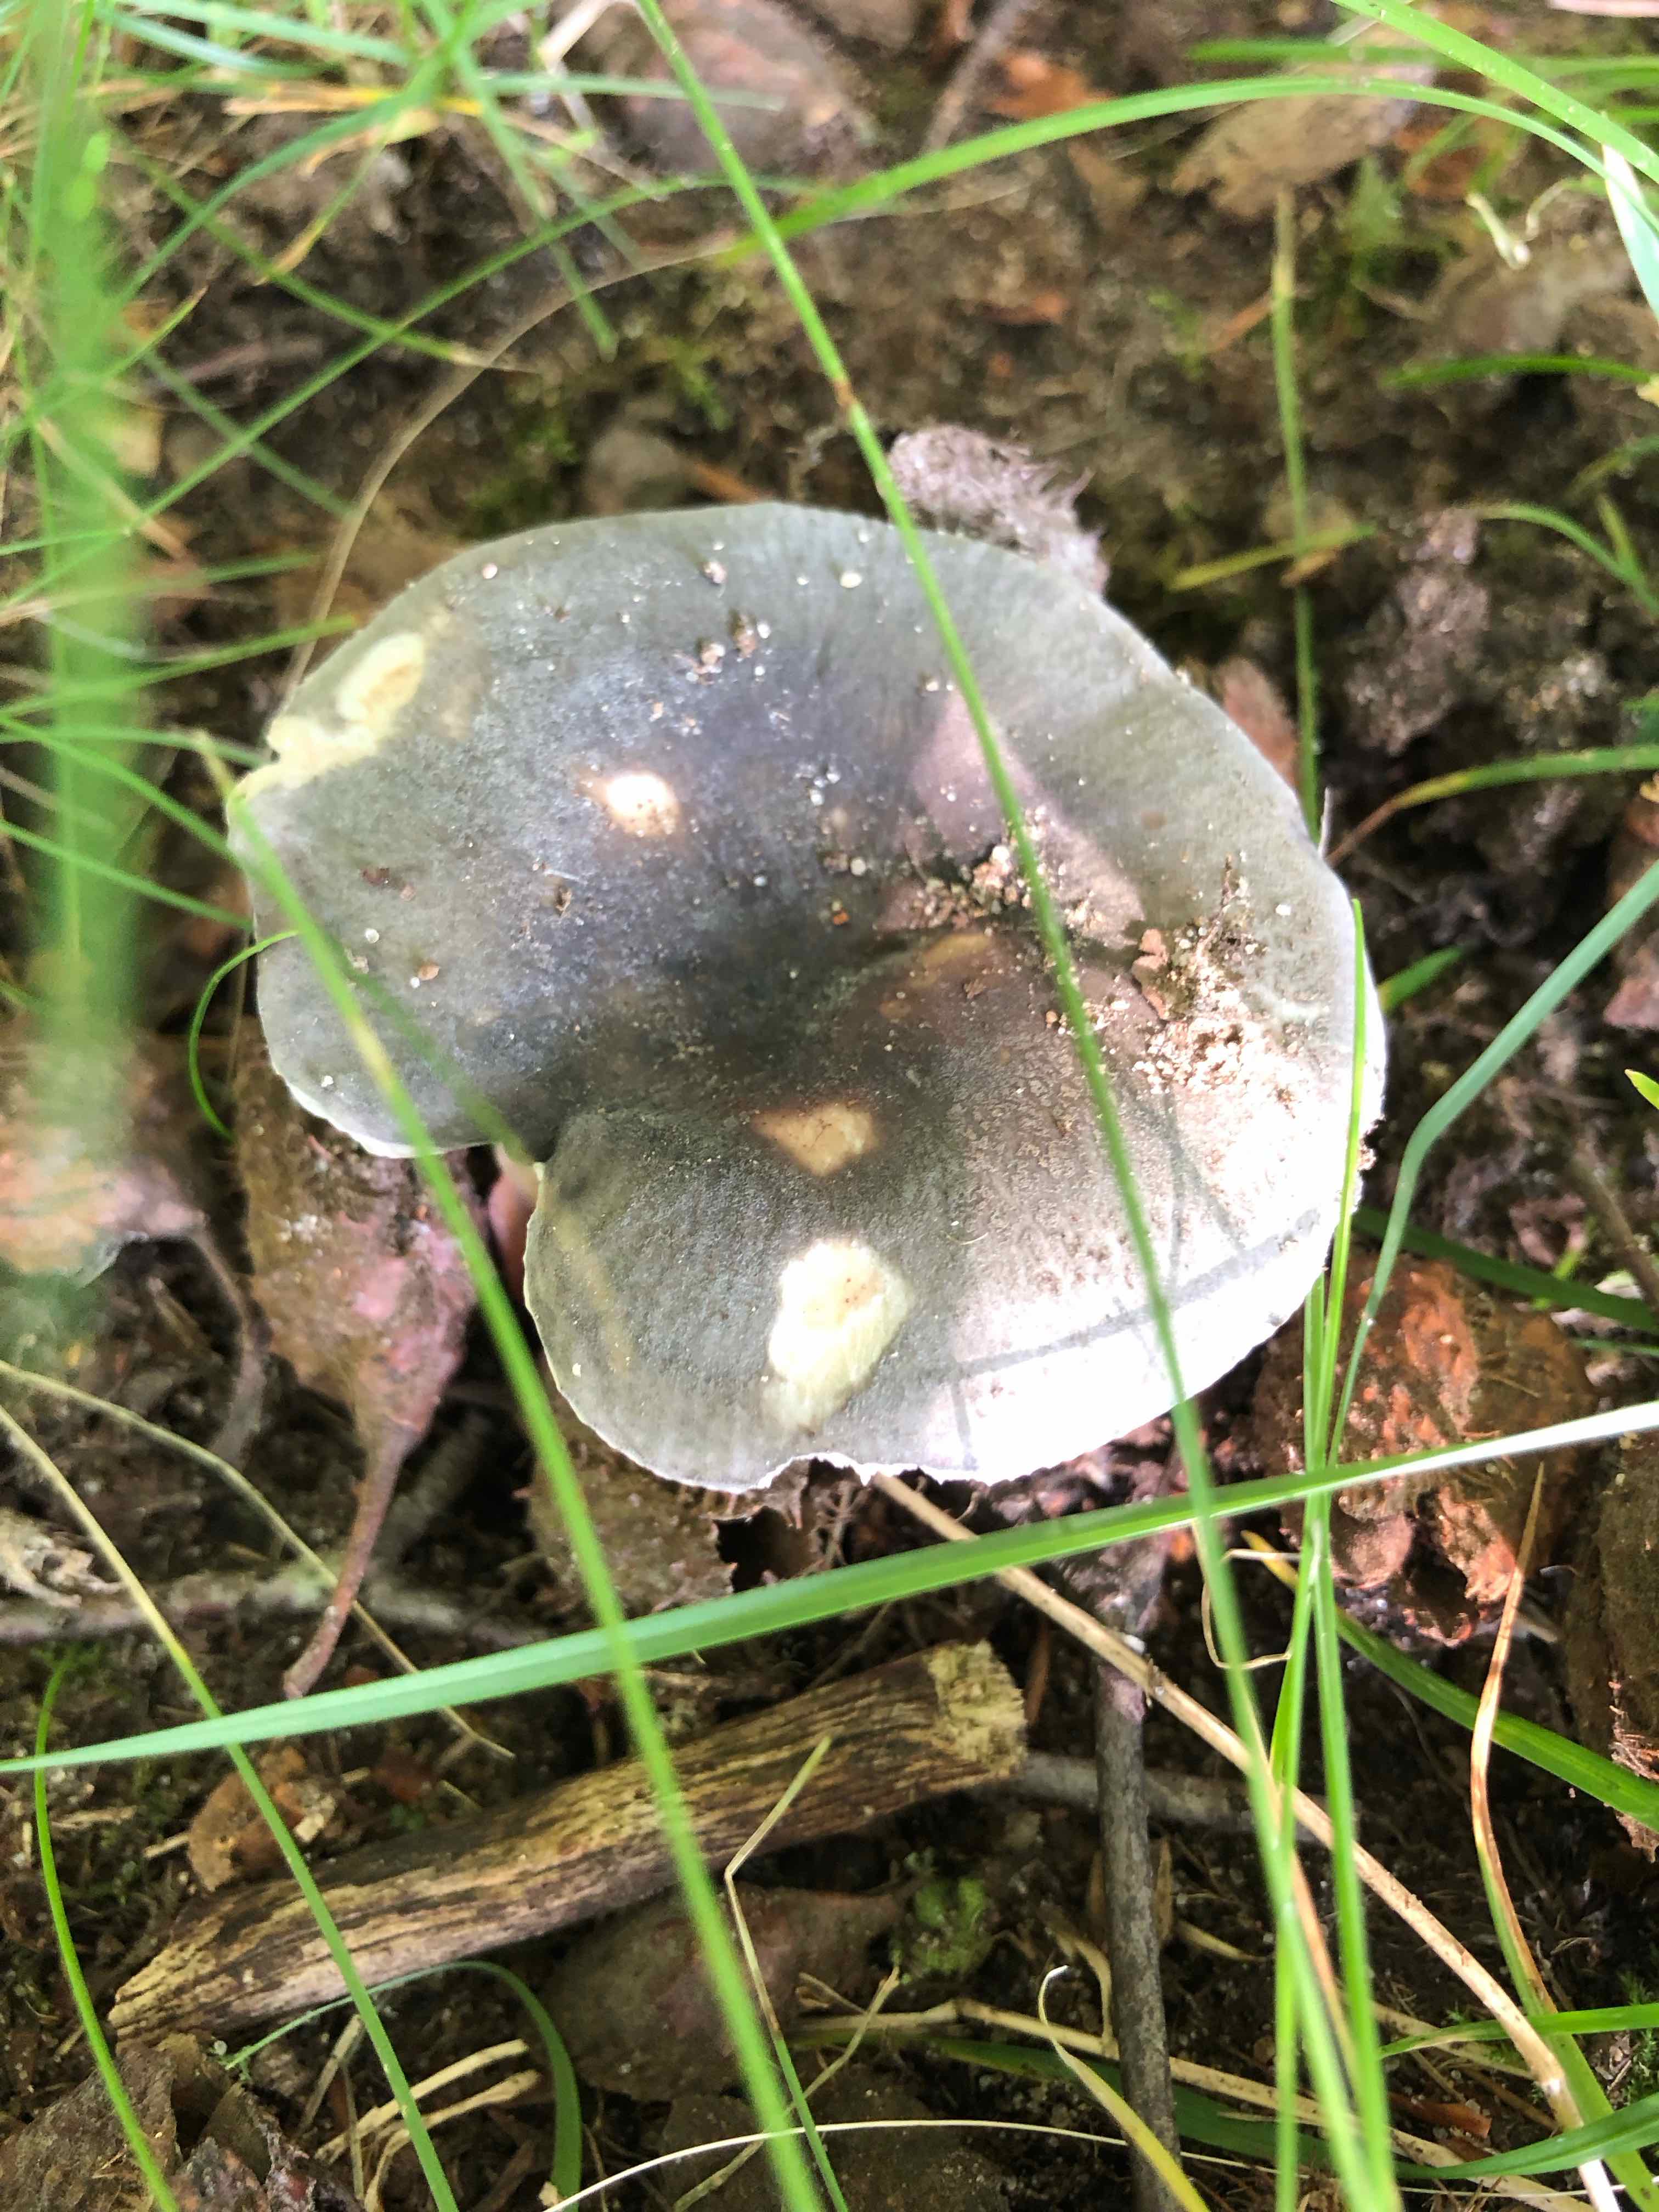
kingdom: Fungi
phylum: Basidiomycota
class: Agaricomycetes
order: Russulales
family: Russulaceae
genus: Russula
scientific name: Russula parazurea
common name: blågrå skørhat
